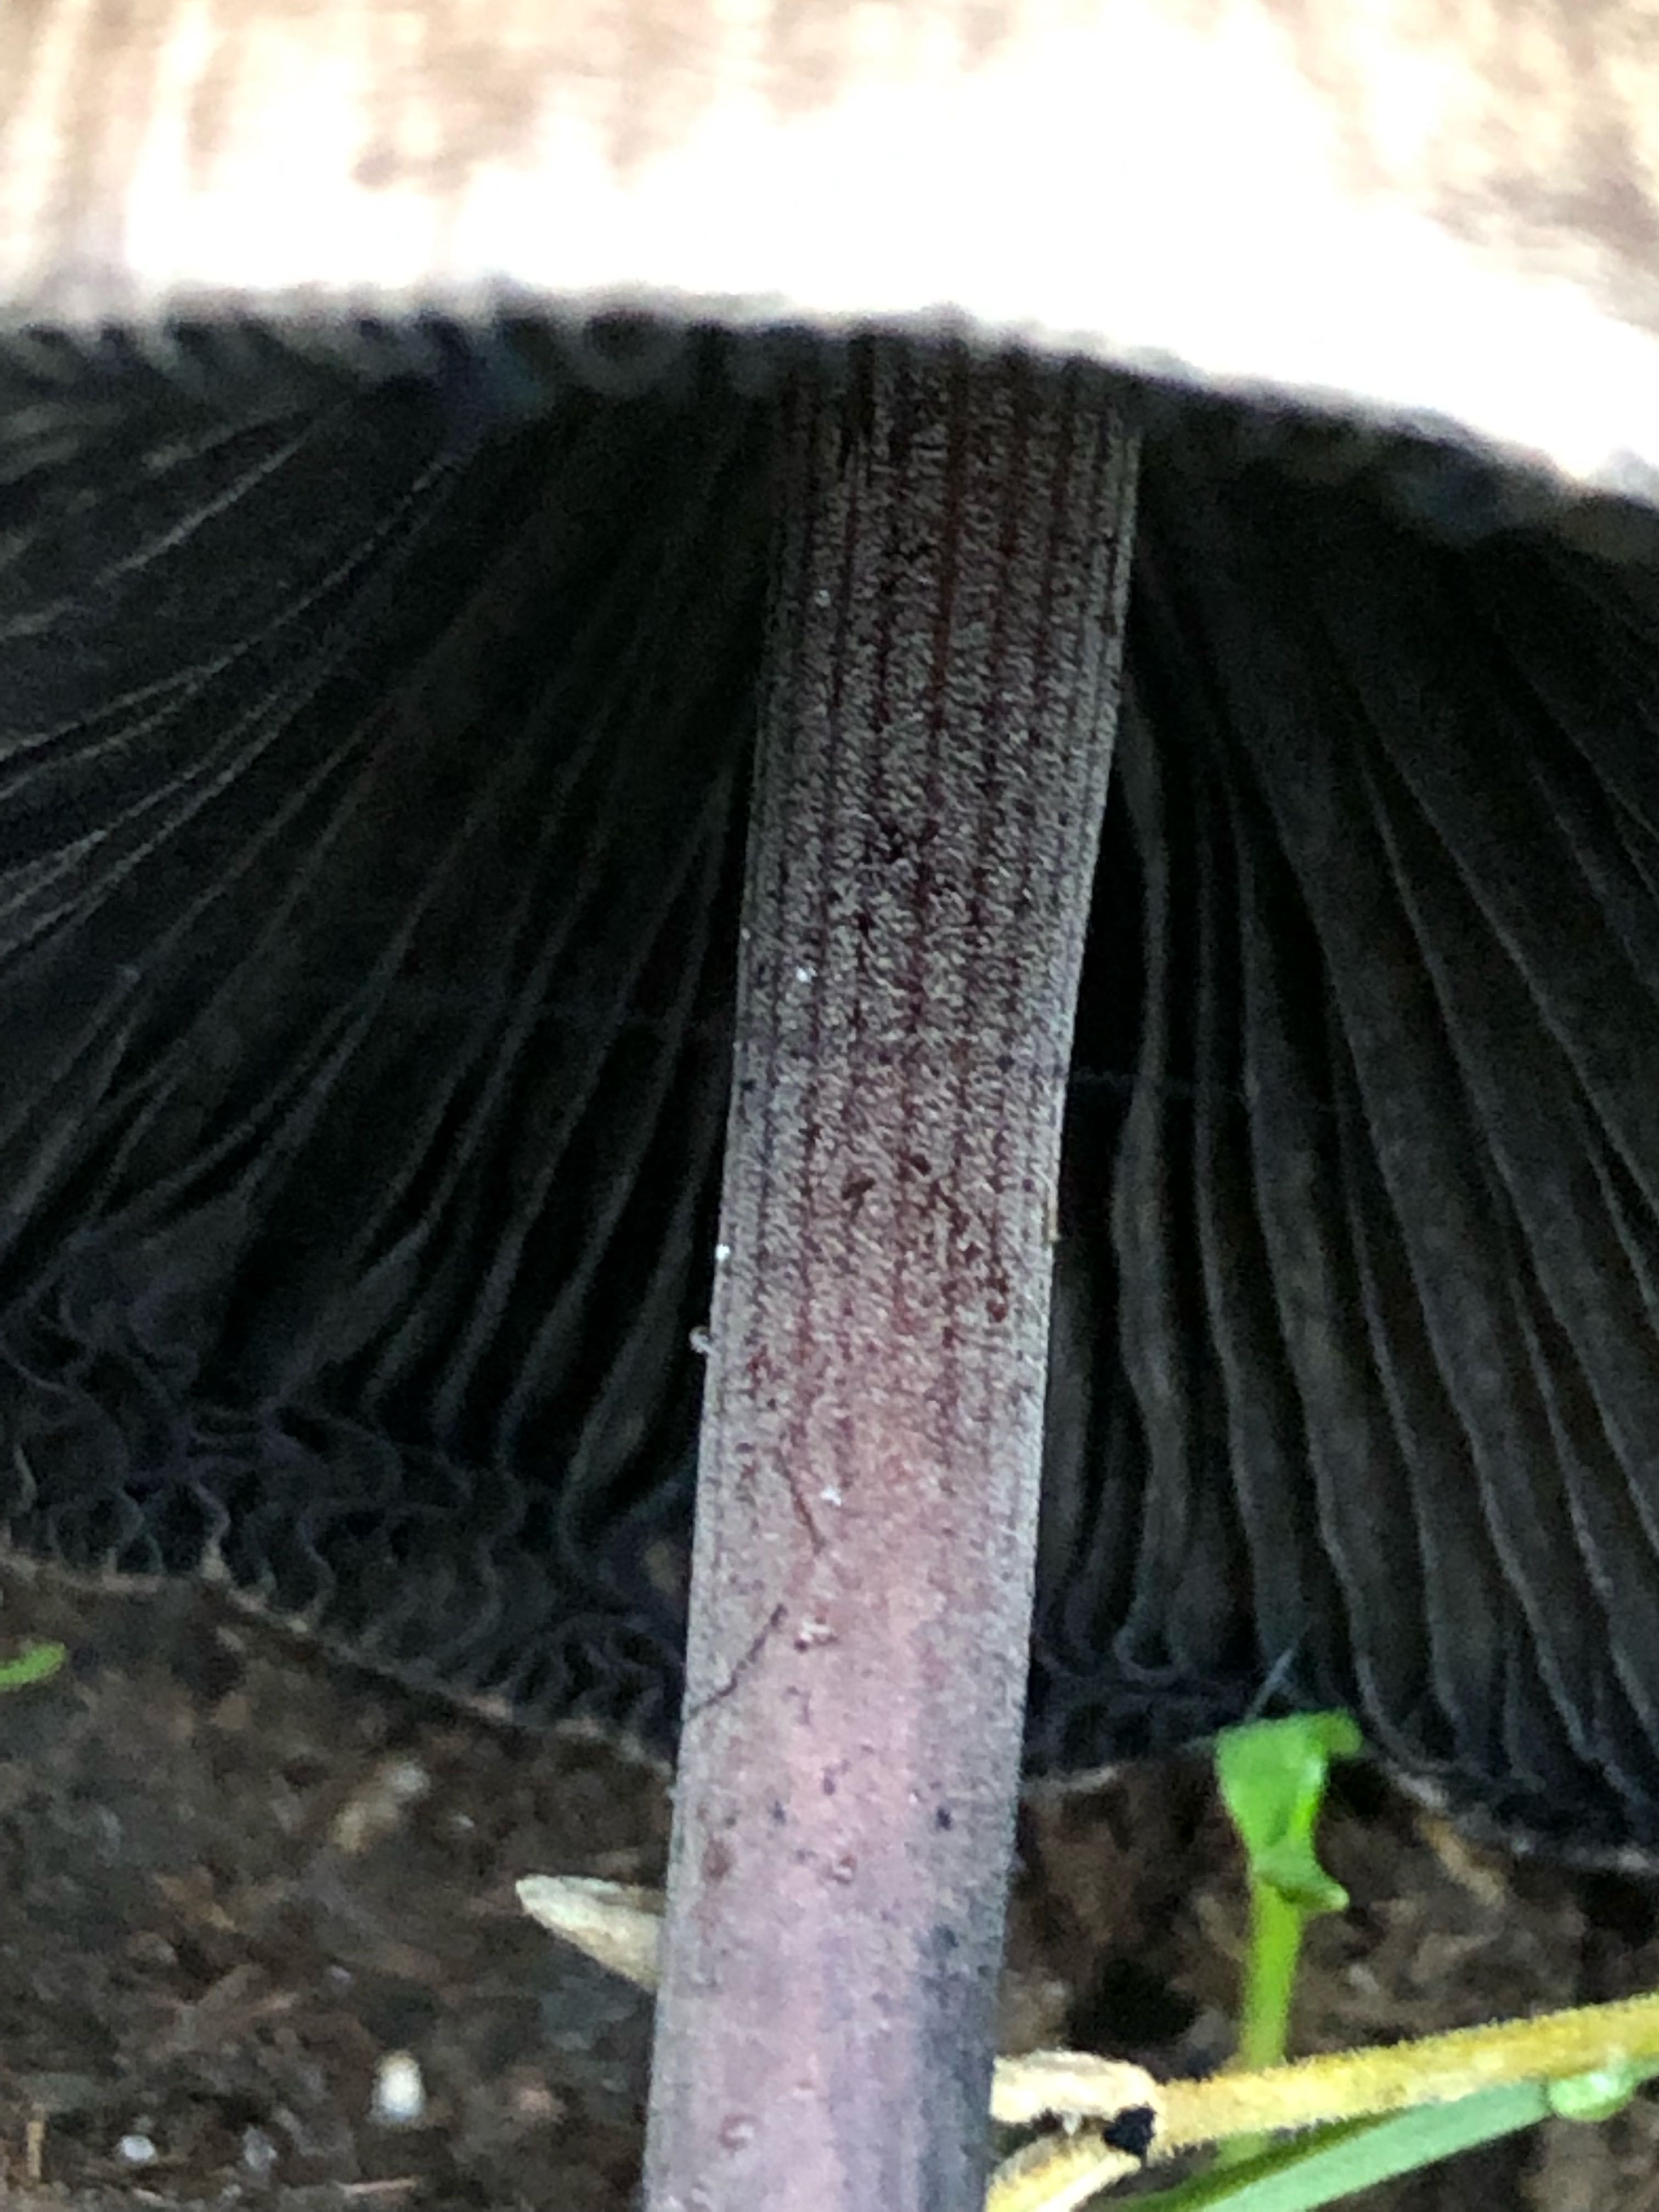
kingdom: Fungi
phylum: Basidiomycota
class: Agaricomycetes
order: Agaricales
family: Bolbitiaceae
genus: Panaeolus
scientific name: Panaeolus papilionaceus
